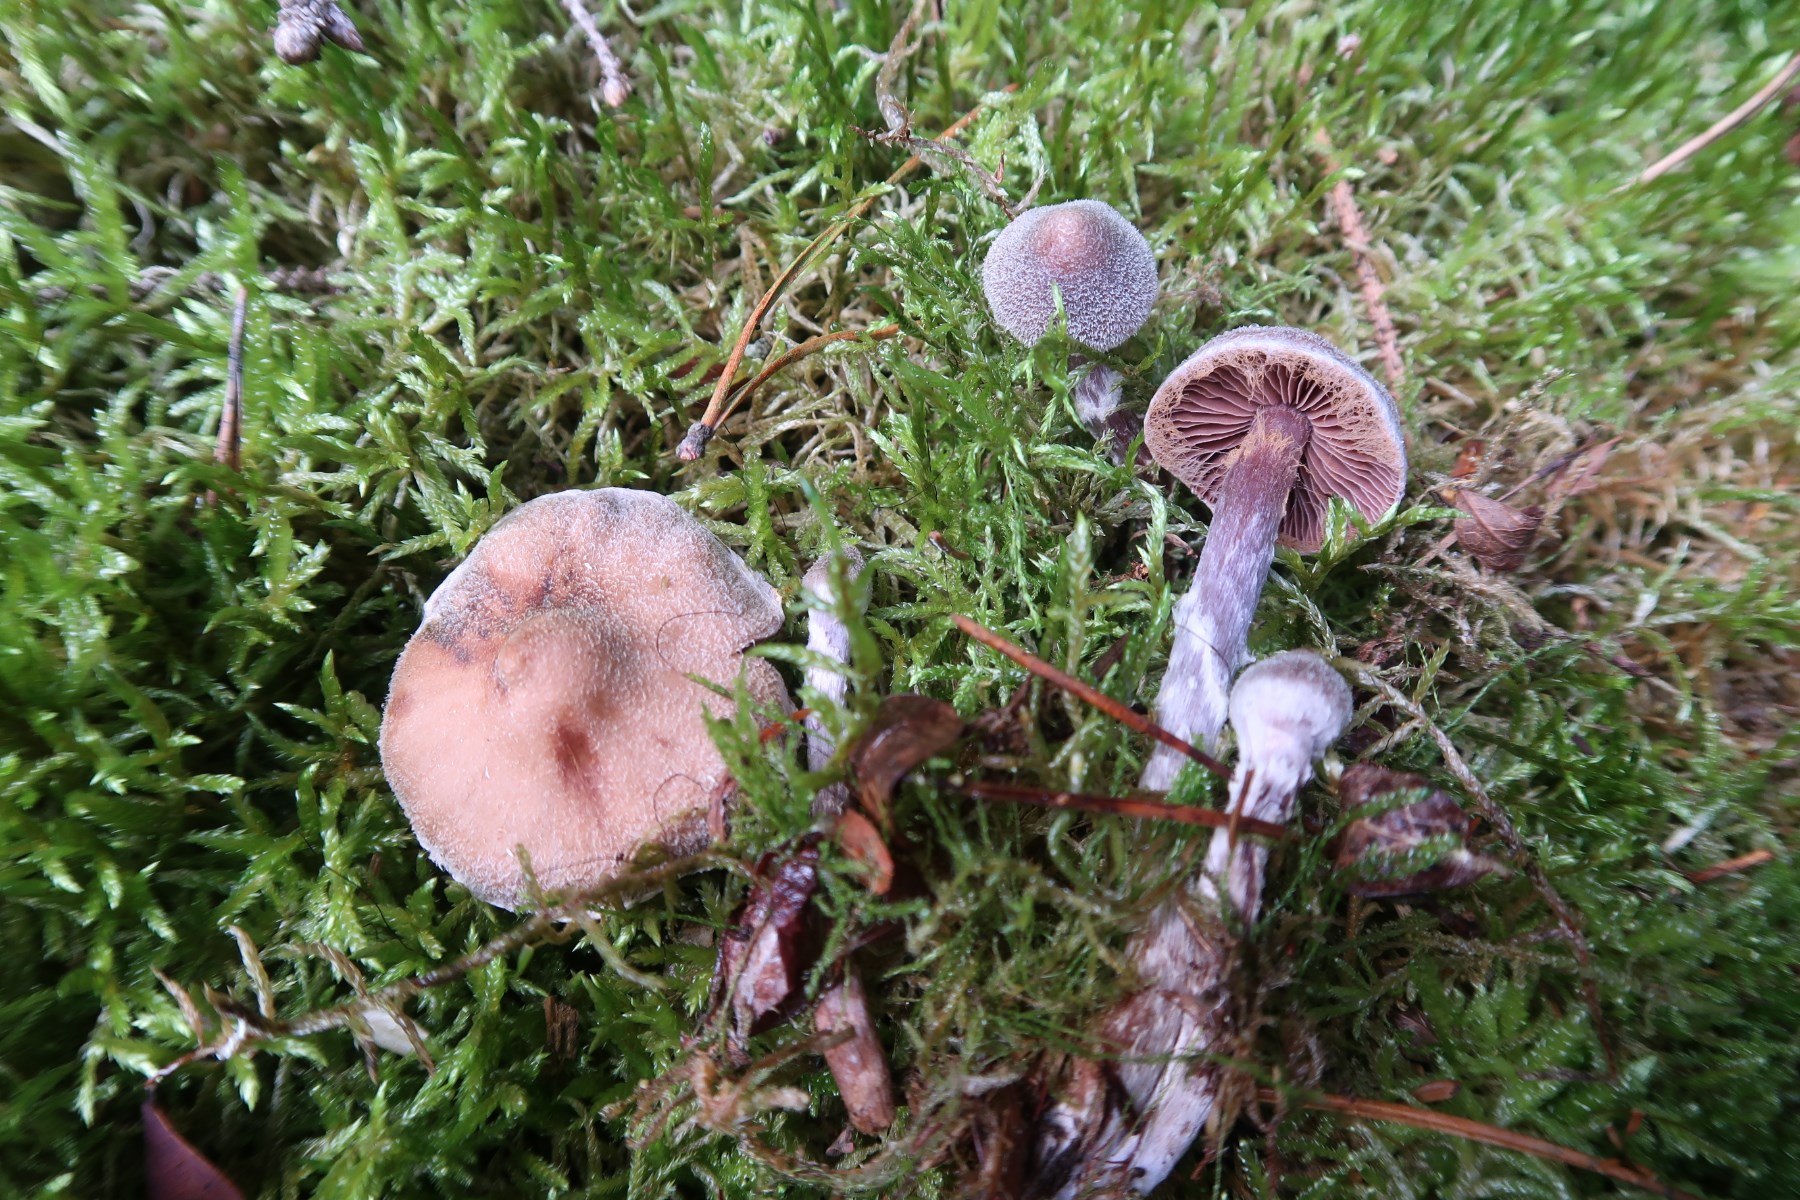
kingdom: Fungi
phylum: Basidiomycota
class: Agaricomycetes
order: Agaricales
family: Cortinariaceae
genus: Cortinarius
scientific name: Cortinarius flexipes
